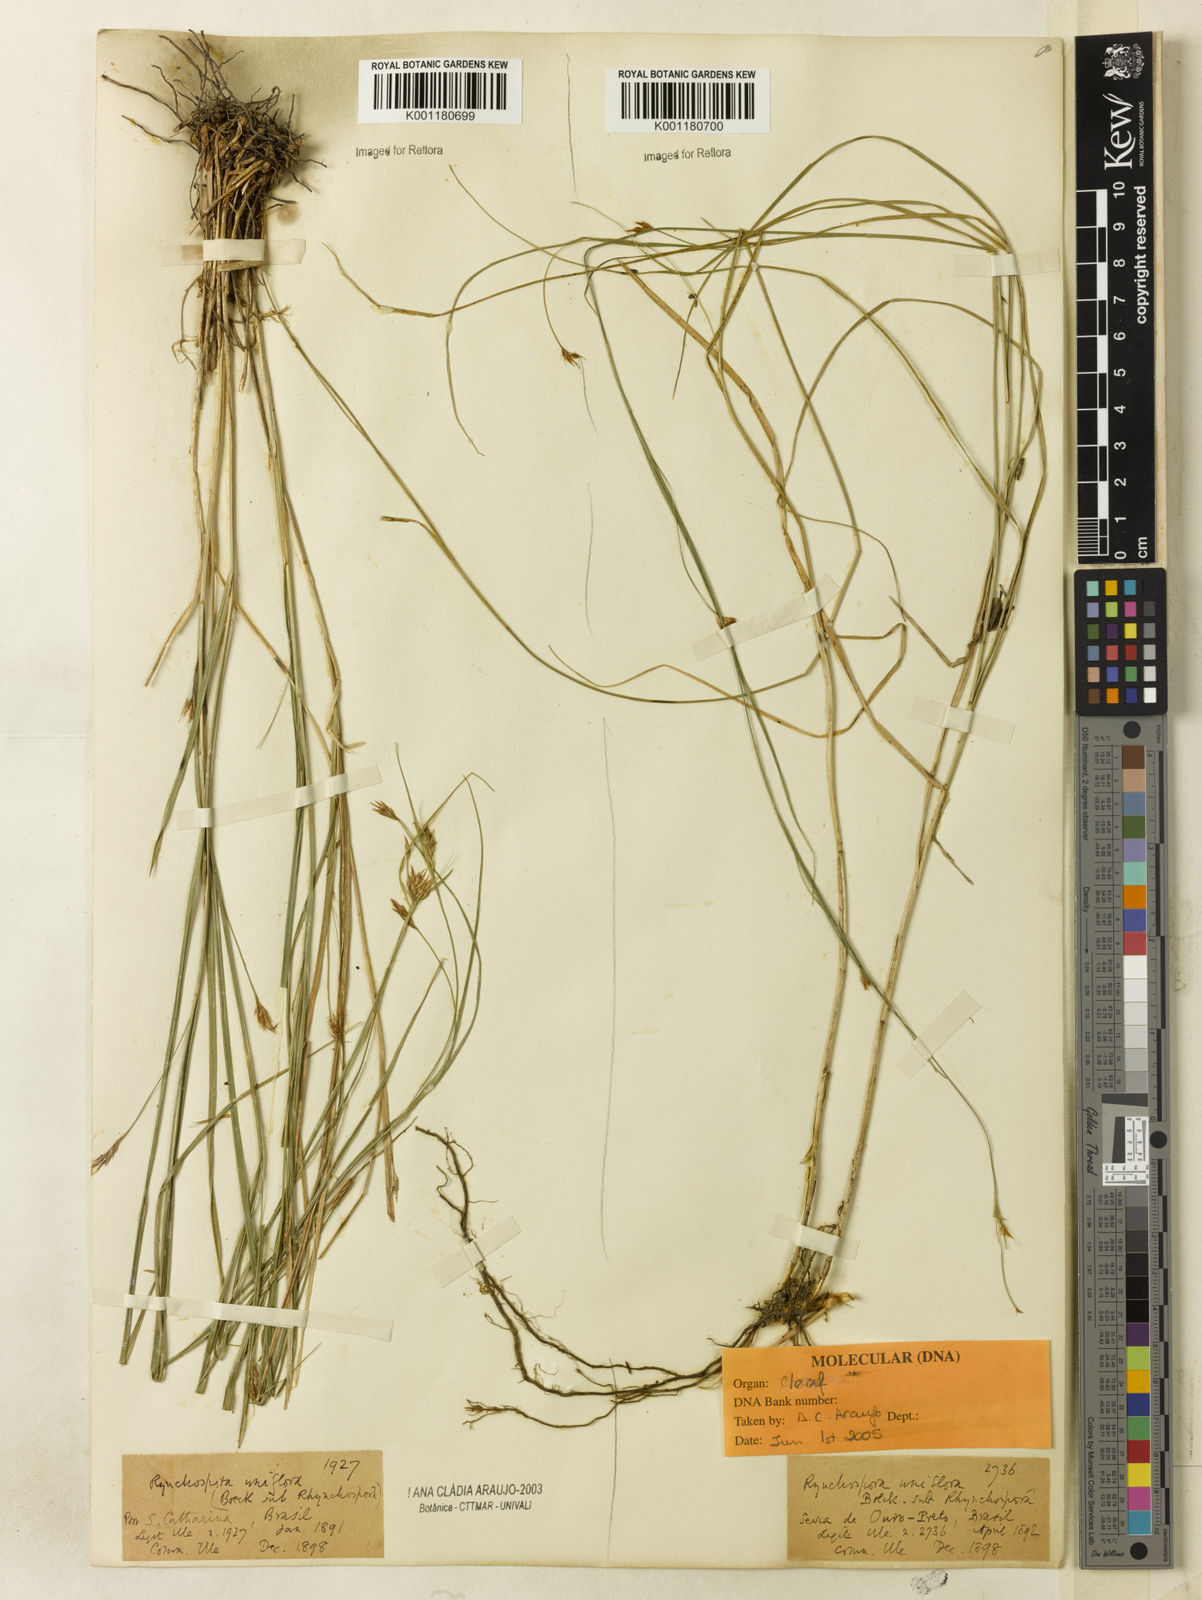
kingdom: Plantae
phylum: Tracheophyta
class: Liliopsida
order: Poales
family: Cyperaceae
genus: Rhynchospora
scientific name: Rhynchospora biflora
